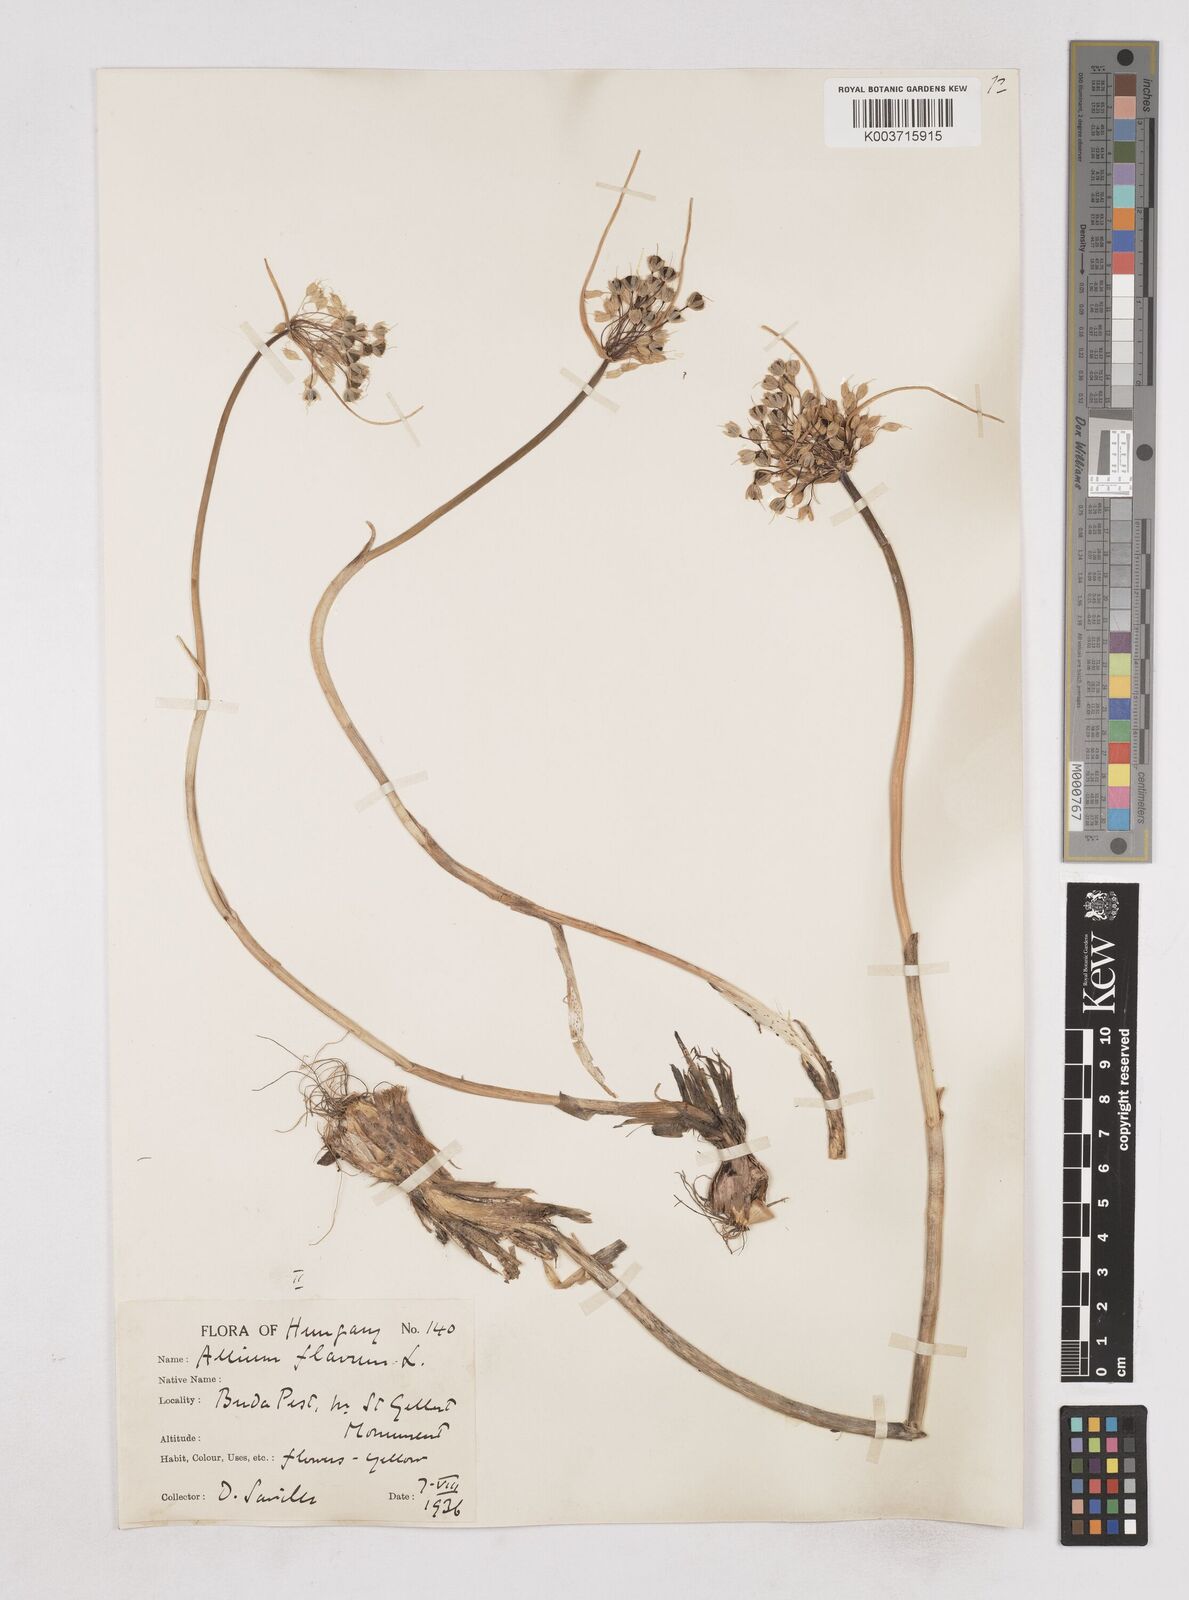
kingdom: Plantae
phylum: Tracheophyta
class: Liliopsida
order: Asparagales
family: Amaryllidaceae
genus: Allium
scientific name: Allium flavum
